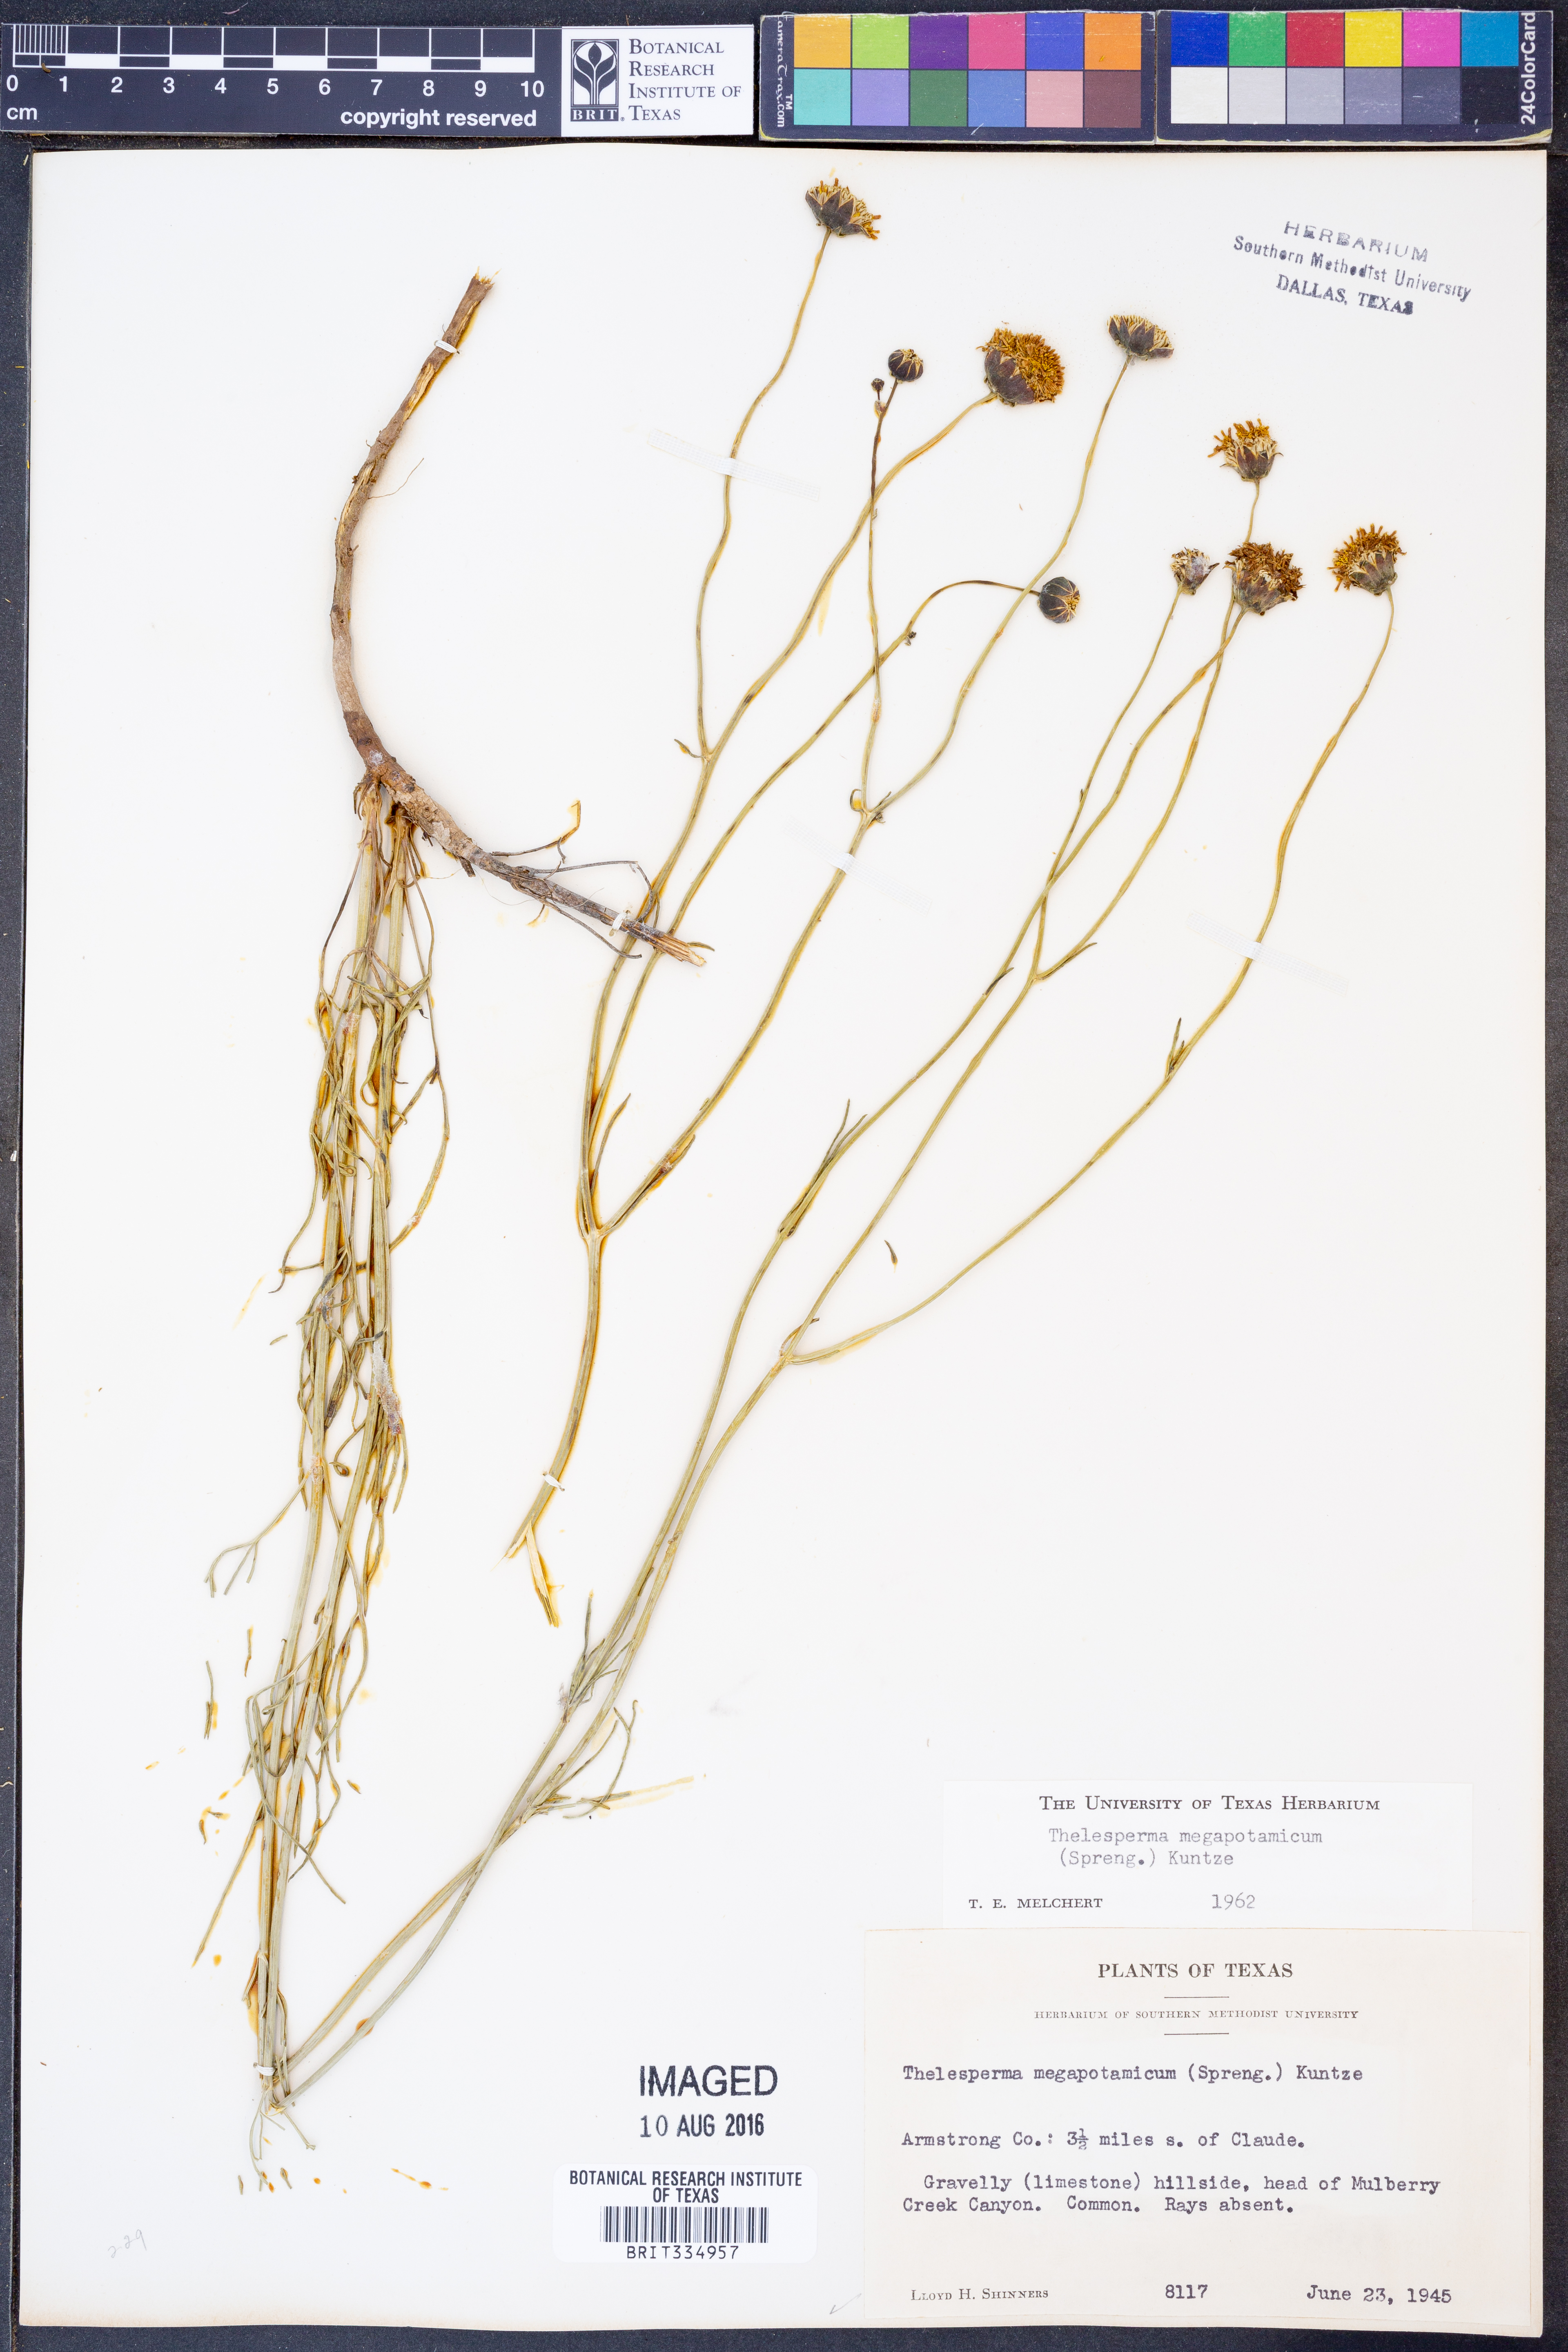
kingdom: Plantae
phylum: Tracheophyta
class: Magnoliopsida
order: Asterales
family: Asteraceae
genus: Thelesperma
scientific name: Thelesperma megapotamicum
